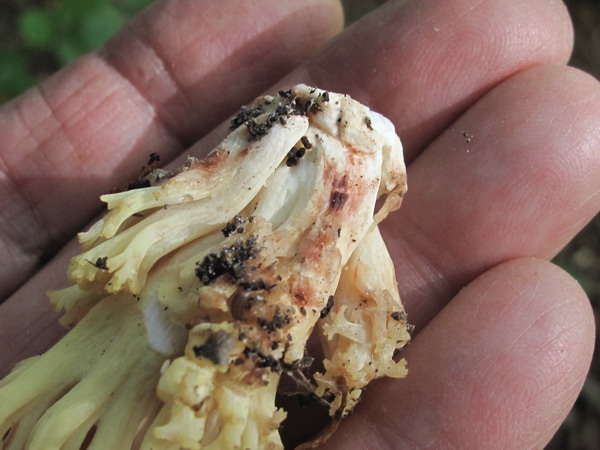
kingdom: Fungi
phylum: Basidiomycota
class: Agaricomycetes
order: Gomphales
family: Gomphaceae
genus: Ramaria
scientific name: Ramaria sanguinea
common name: blodplettet koralsvamp
